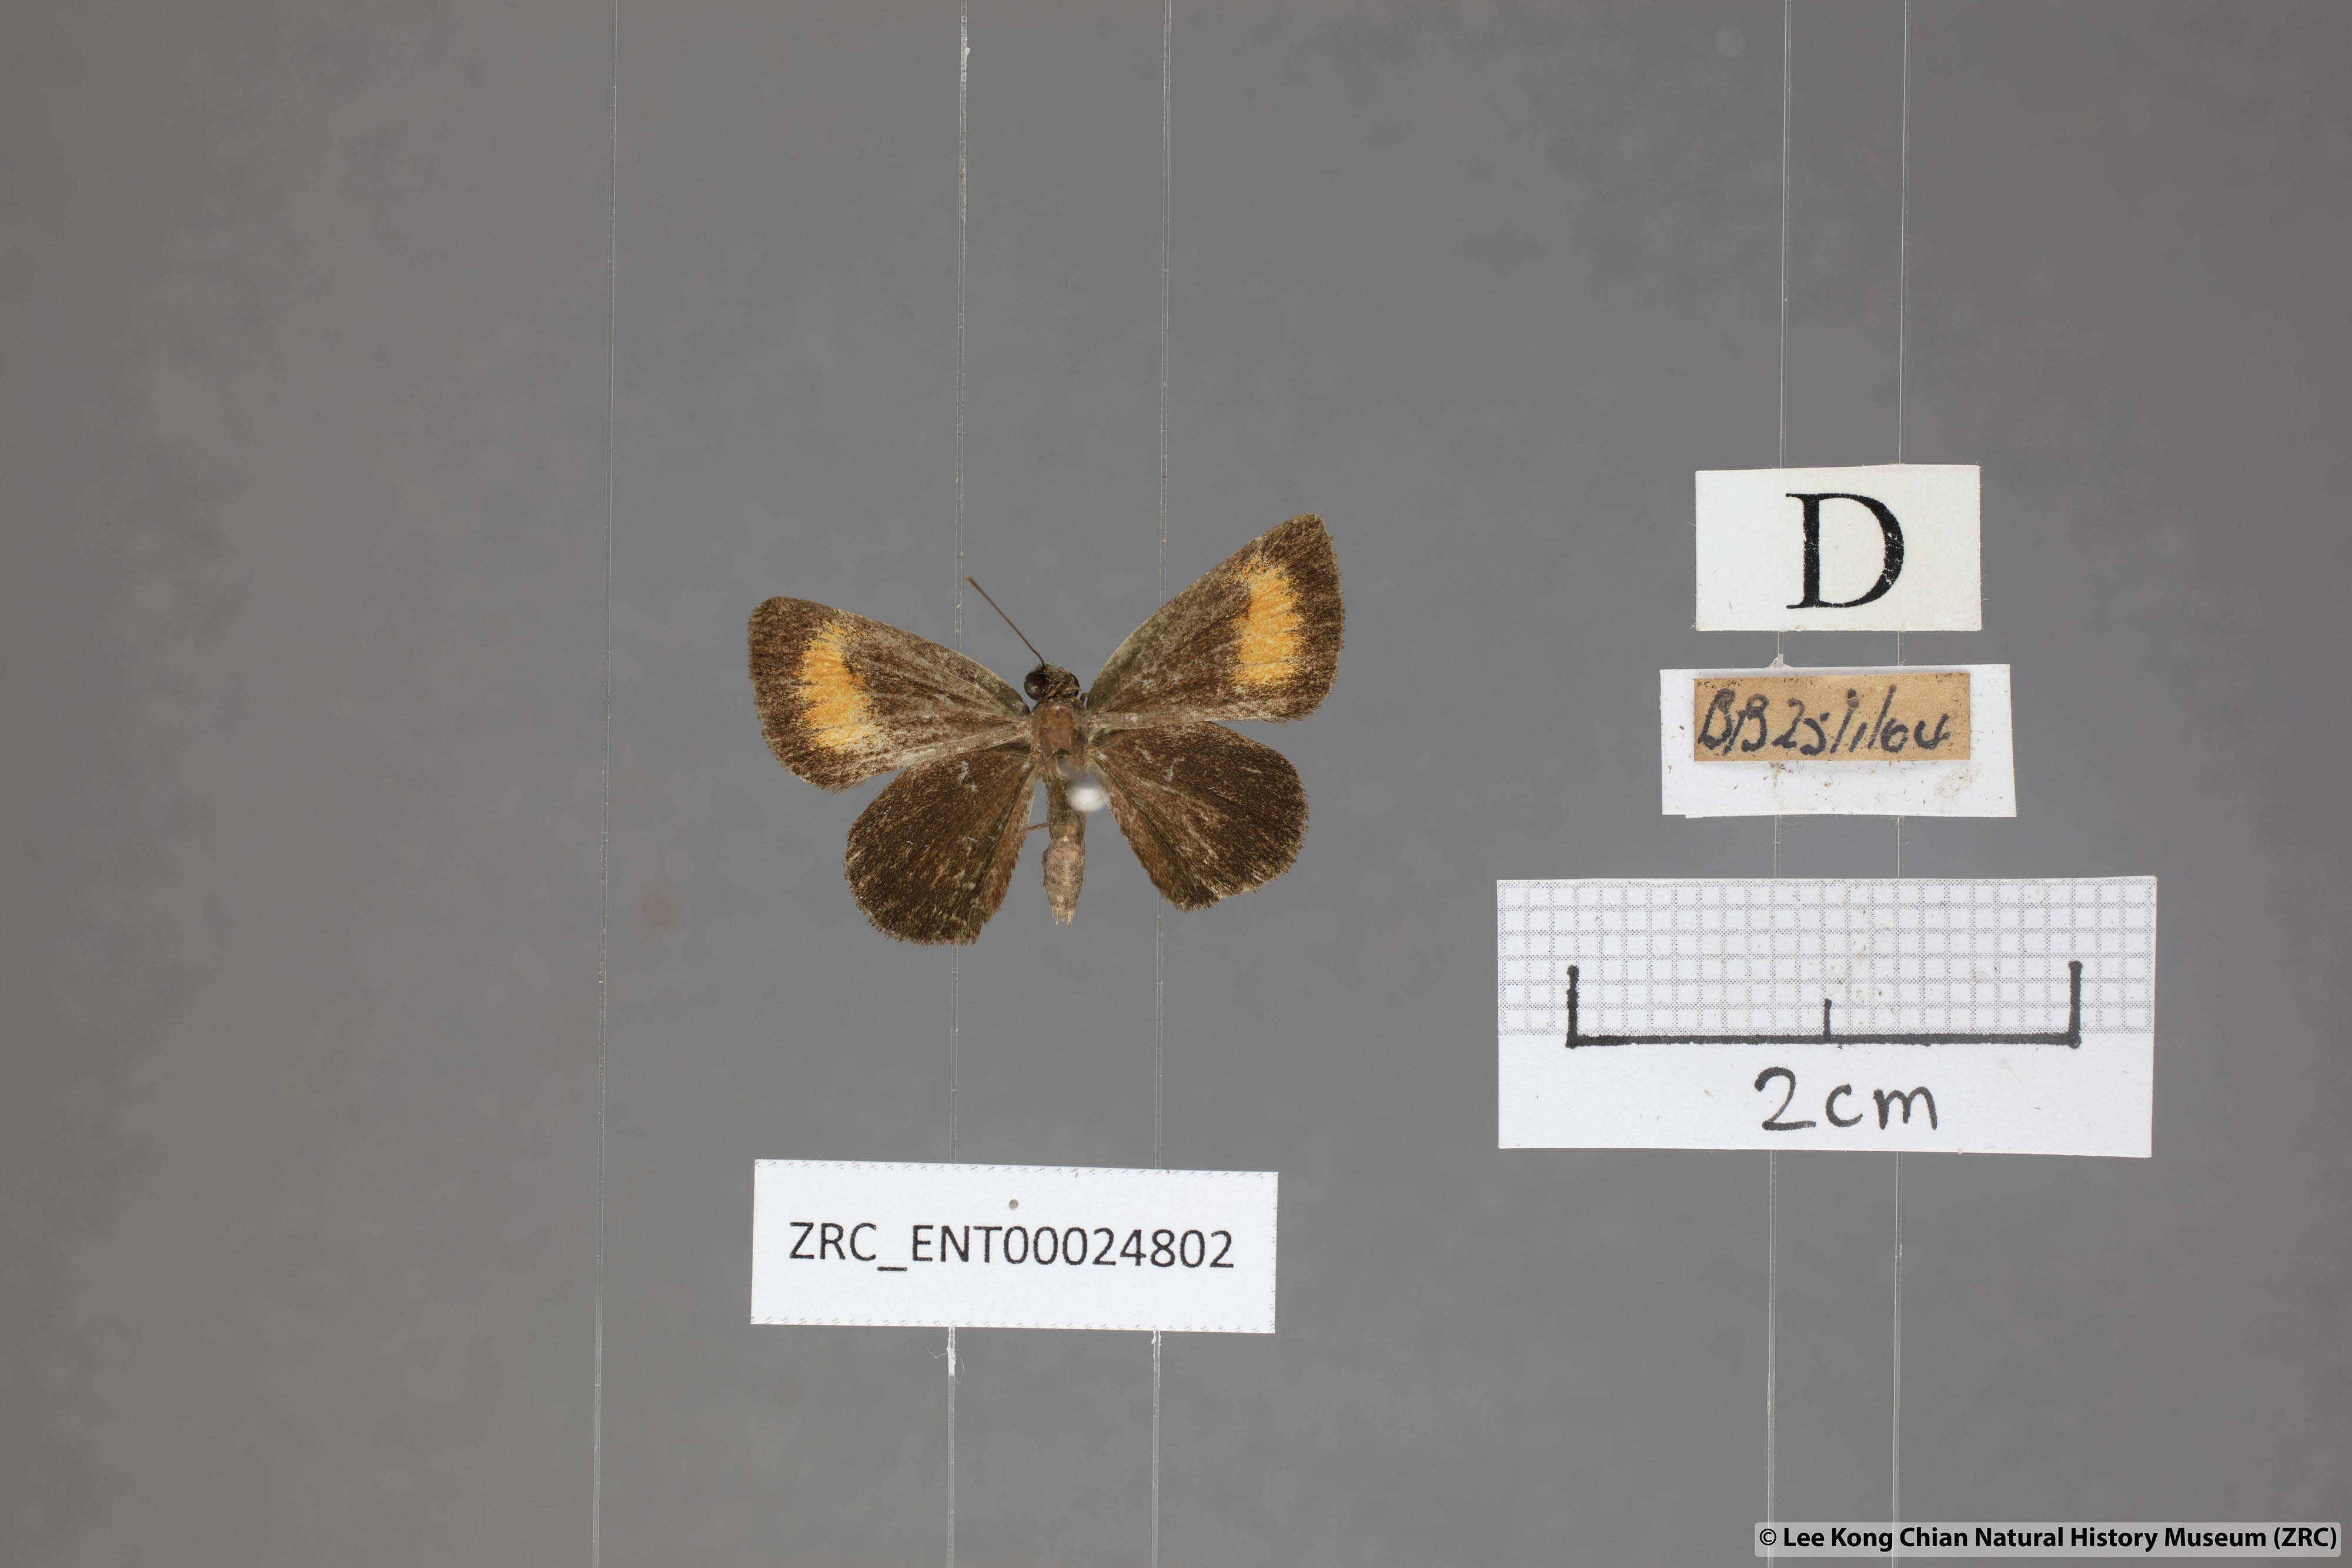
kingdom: Animalia
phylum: Arthropoda
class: Insecta
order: Lepidoptera
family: Hesperiidae
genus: Iambrix
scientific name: Iambrix Idmon obliquans
